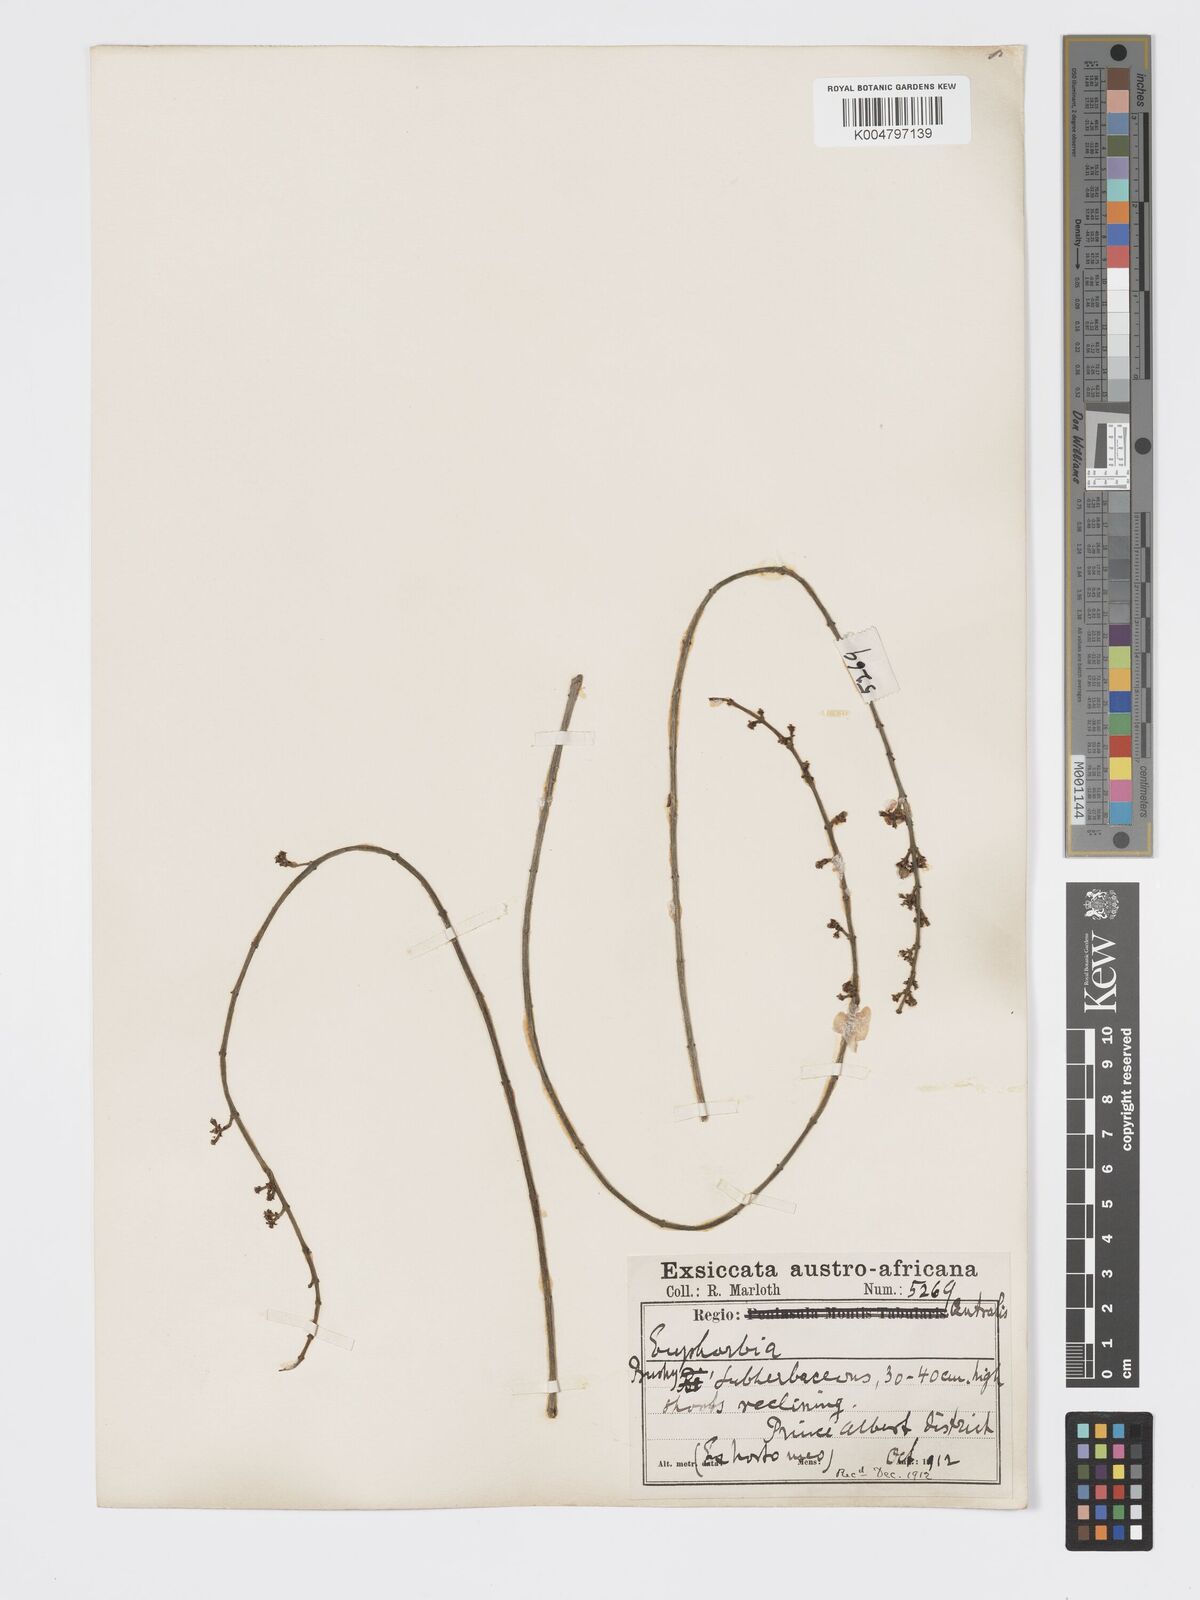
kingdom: Plantae
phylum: Tracheophyta
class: Magnoliopsida
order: Malpighiales
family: Euphorbiaceae
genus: Euphorbia
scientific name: Euphorbia
